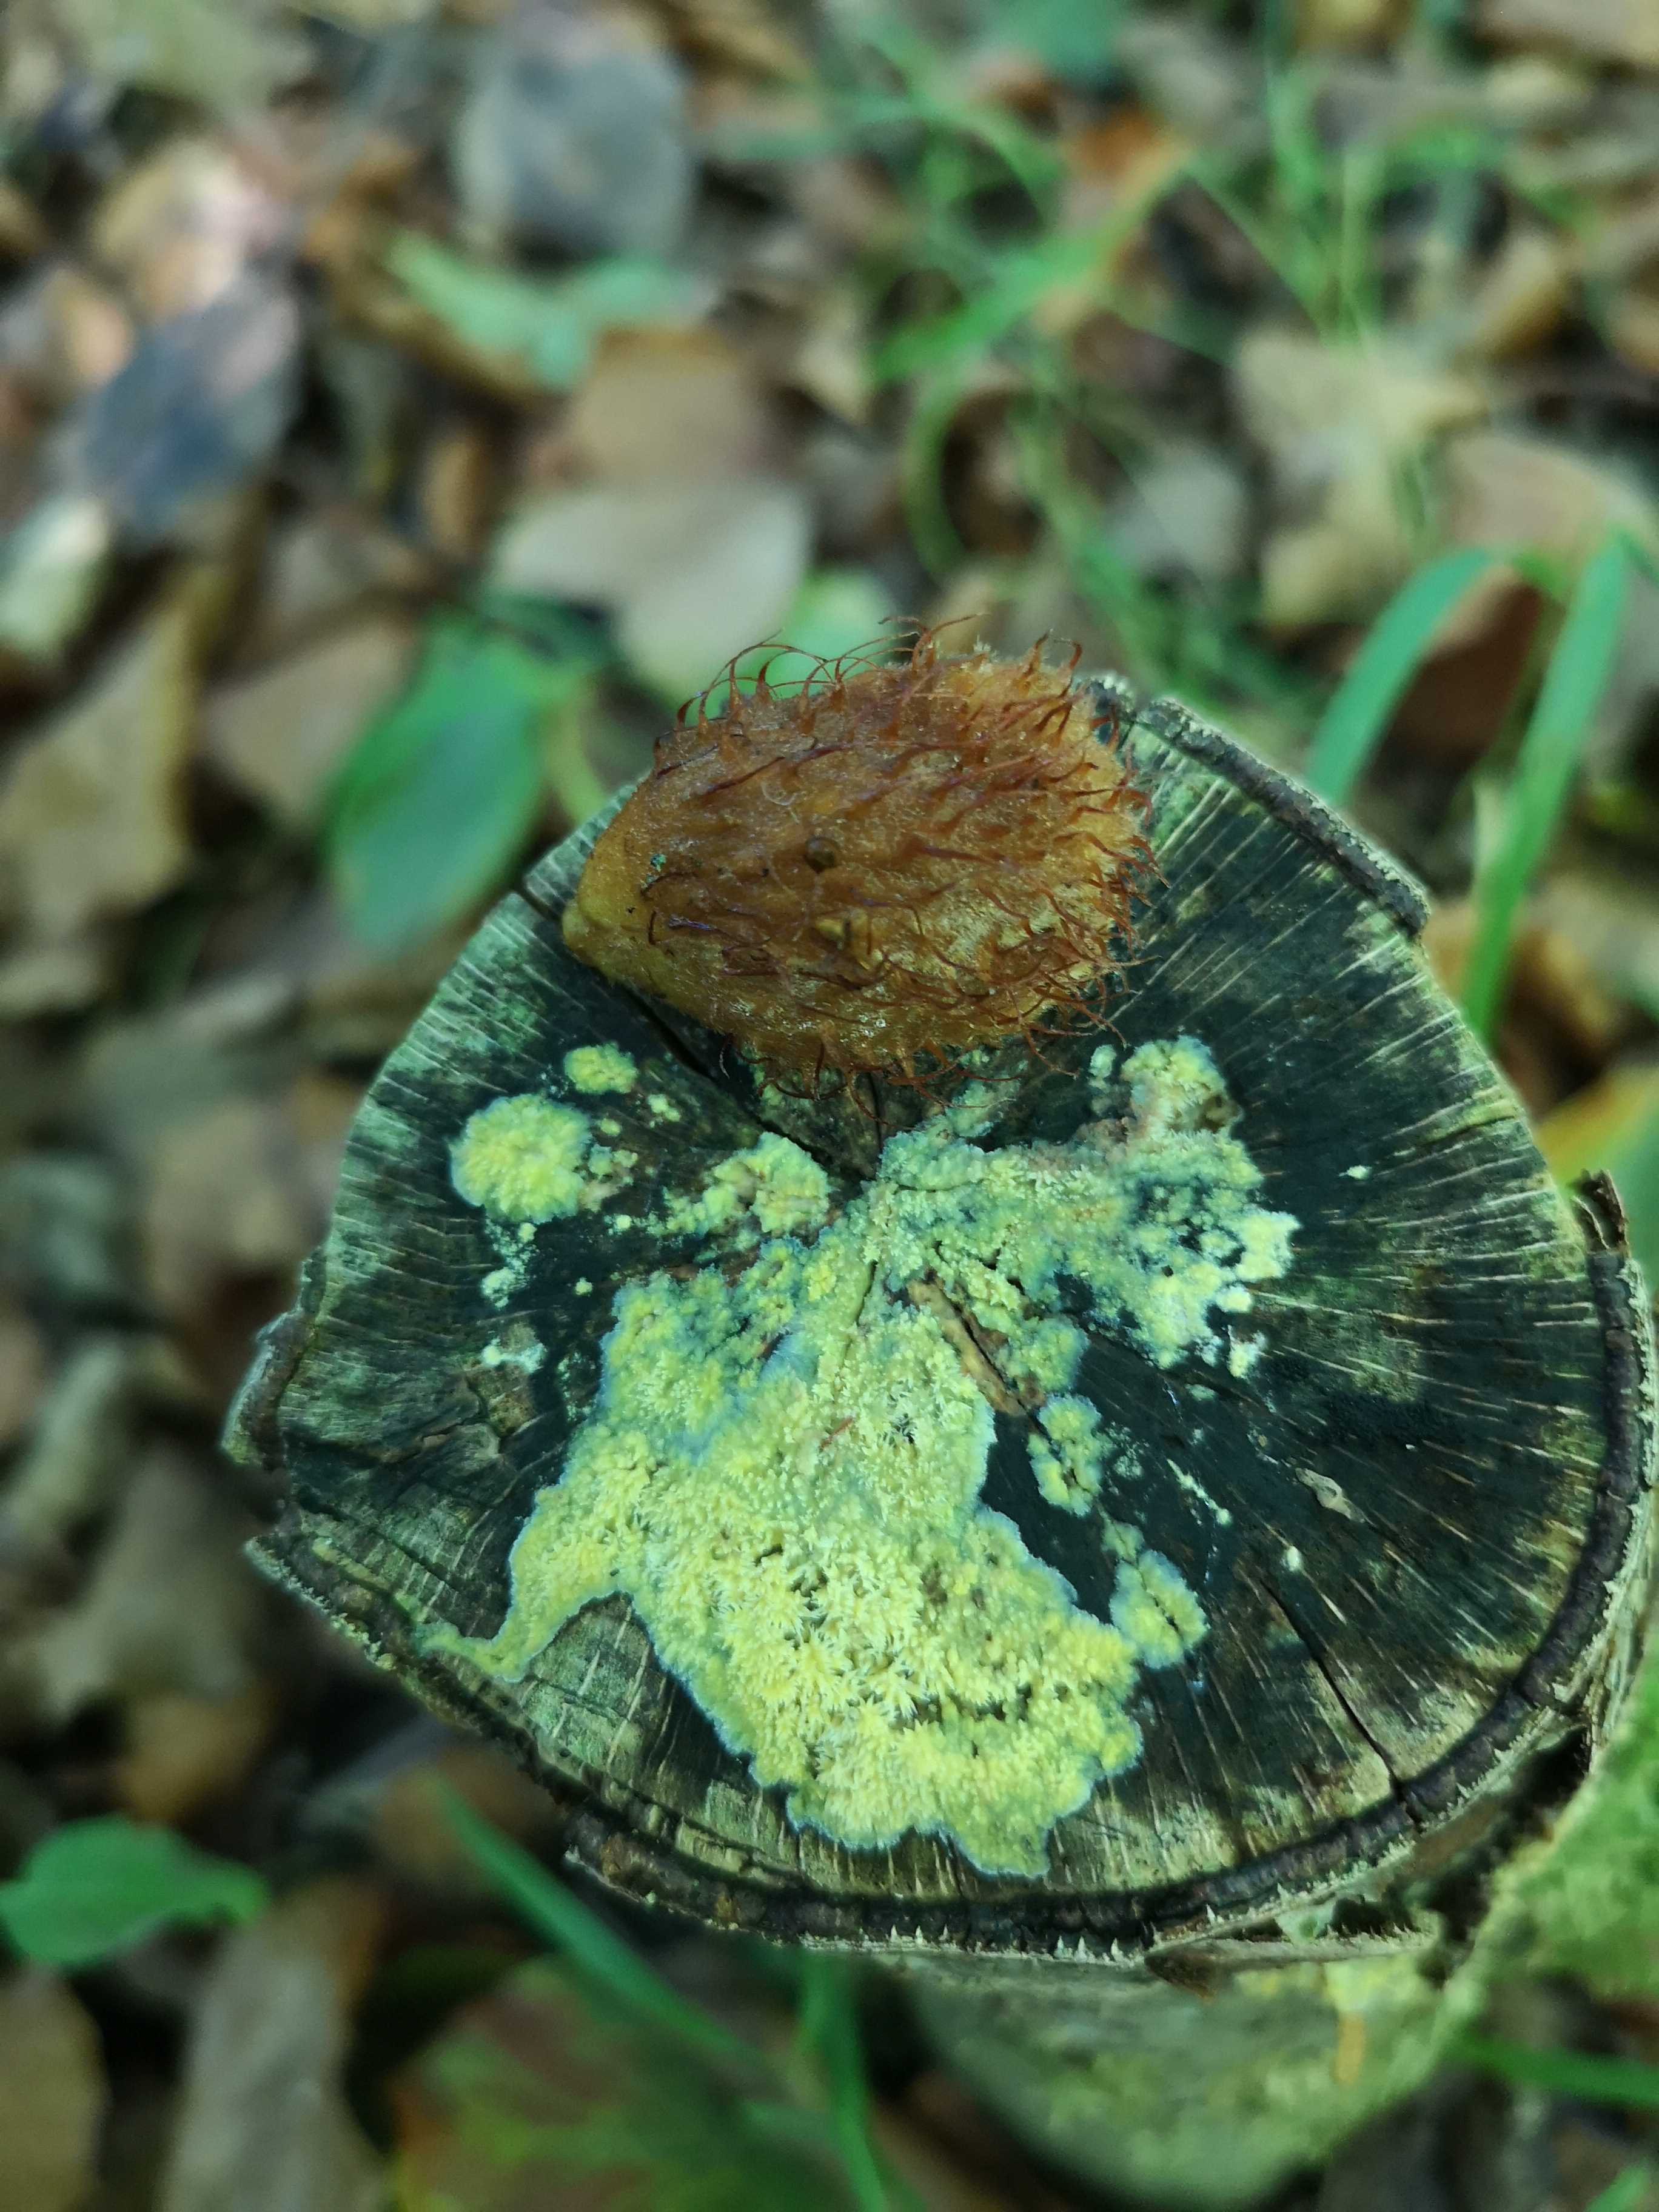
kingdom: Fungi
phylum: Basidiomycota
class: Agaricomycetes
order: Polyporales
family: Meruliaceae
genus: Mycoacia
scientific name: Mycoacia uda
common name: citrongul vokspig
